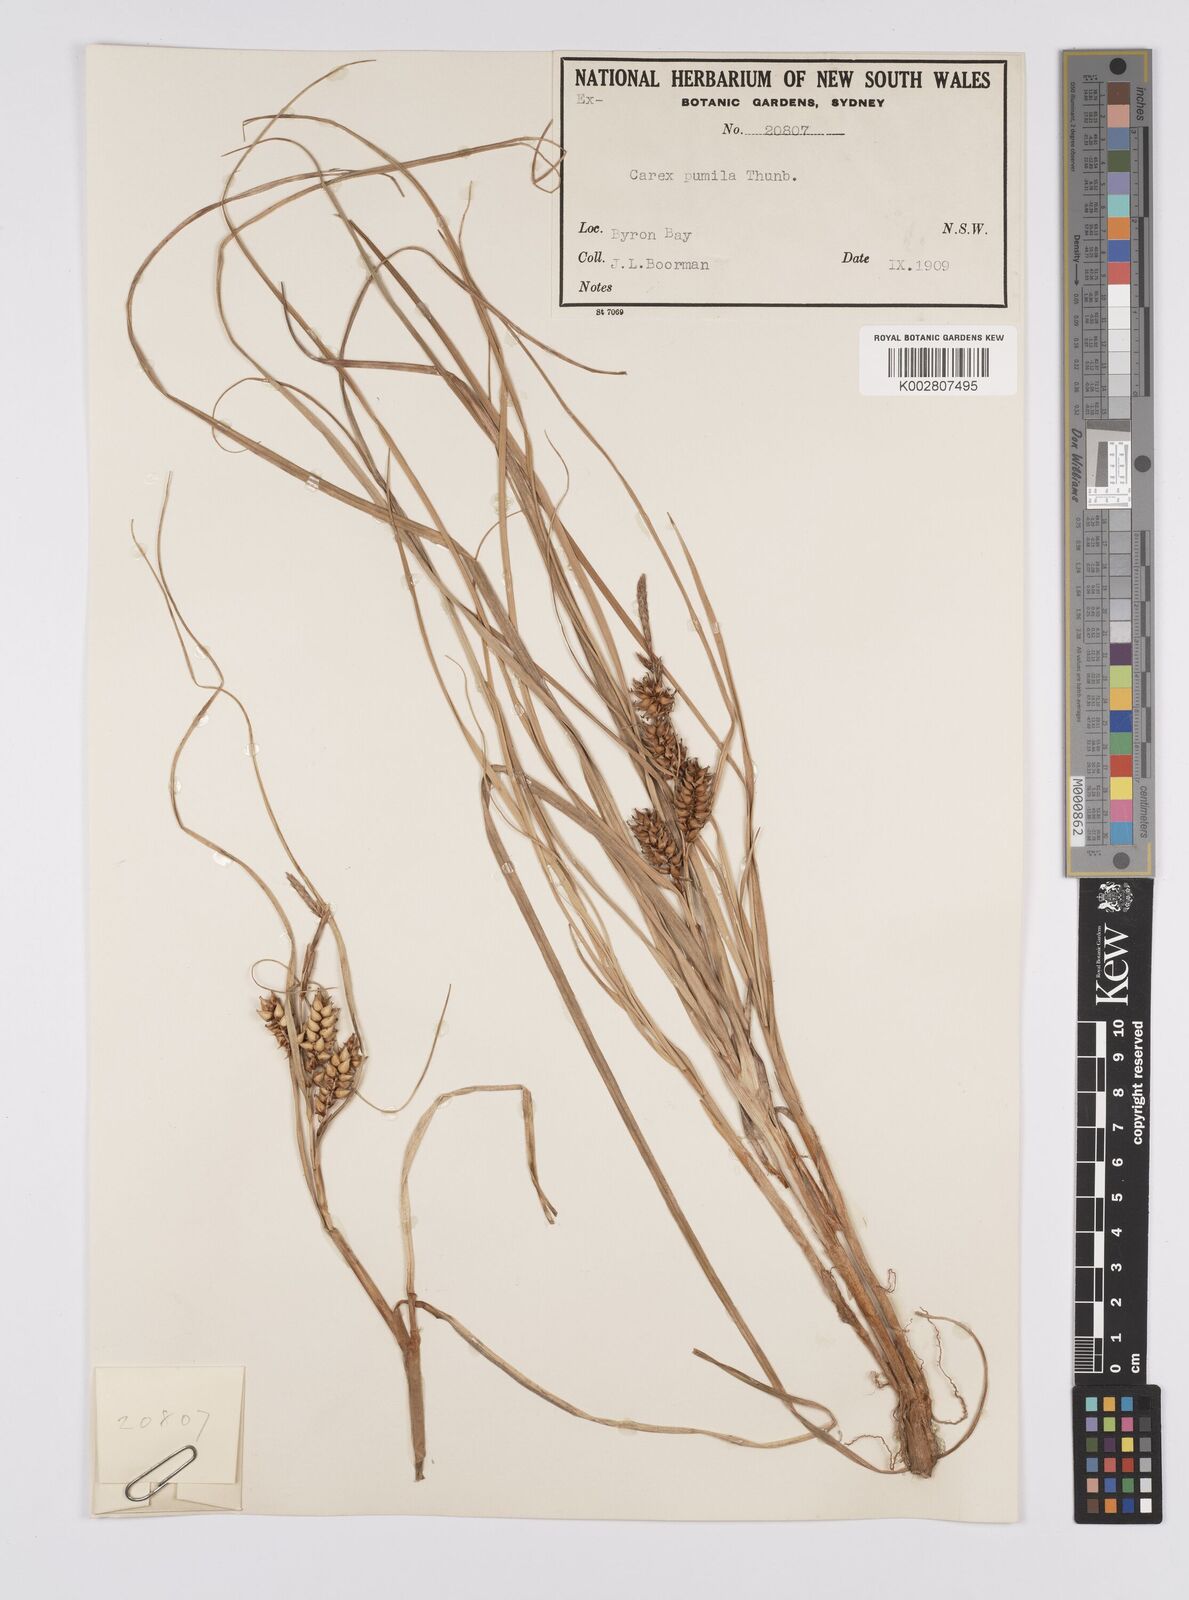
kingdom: Plantae
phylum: Tracheophyta
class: Liliopsida
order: Poales
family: Cyperaceae
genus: Carex
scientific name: Carex pumila
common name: Dwarf sedge
